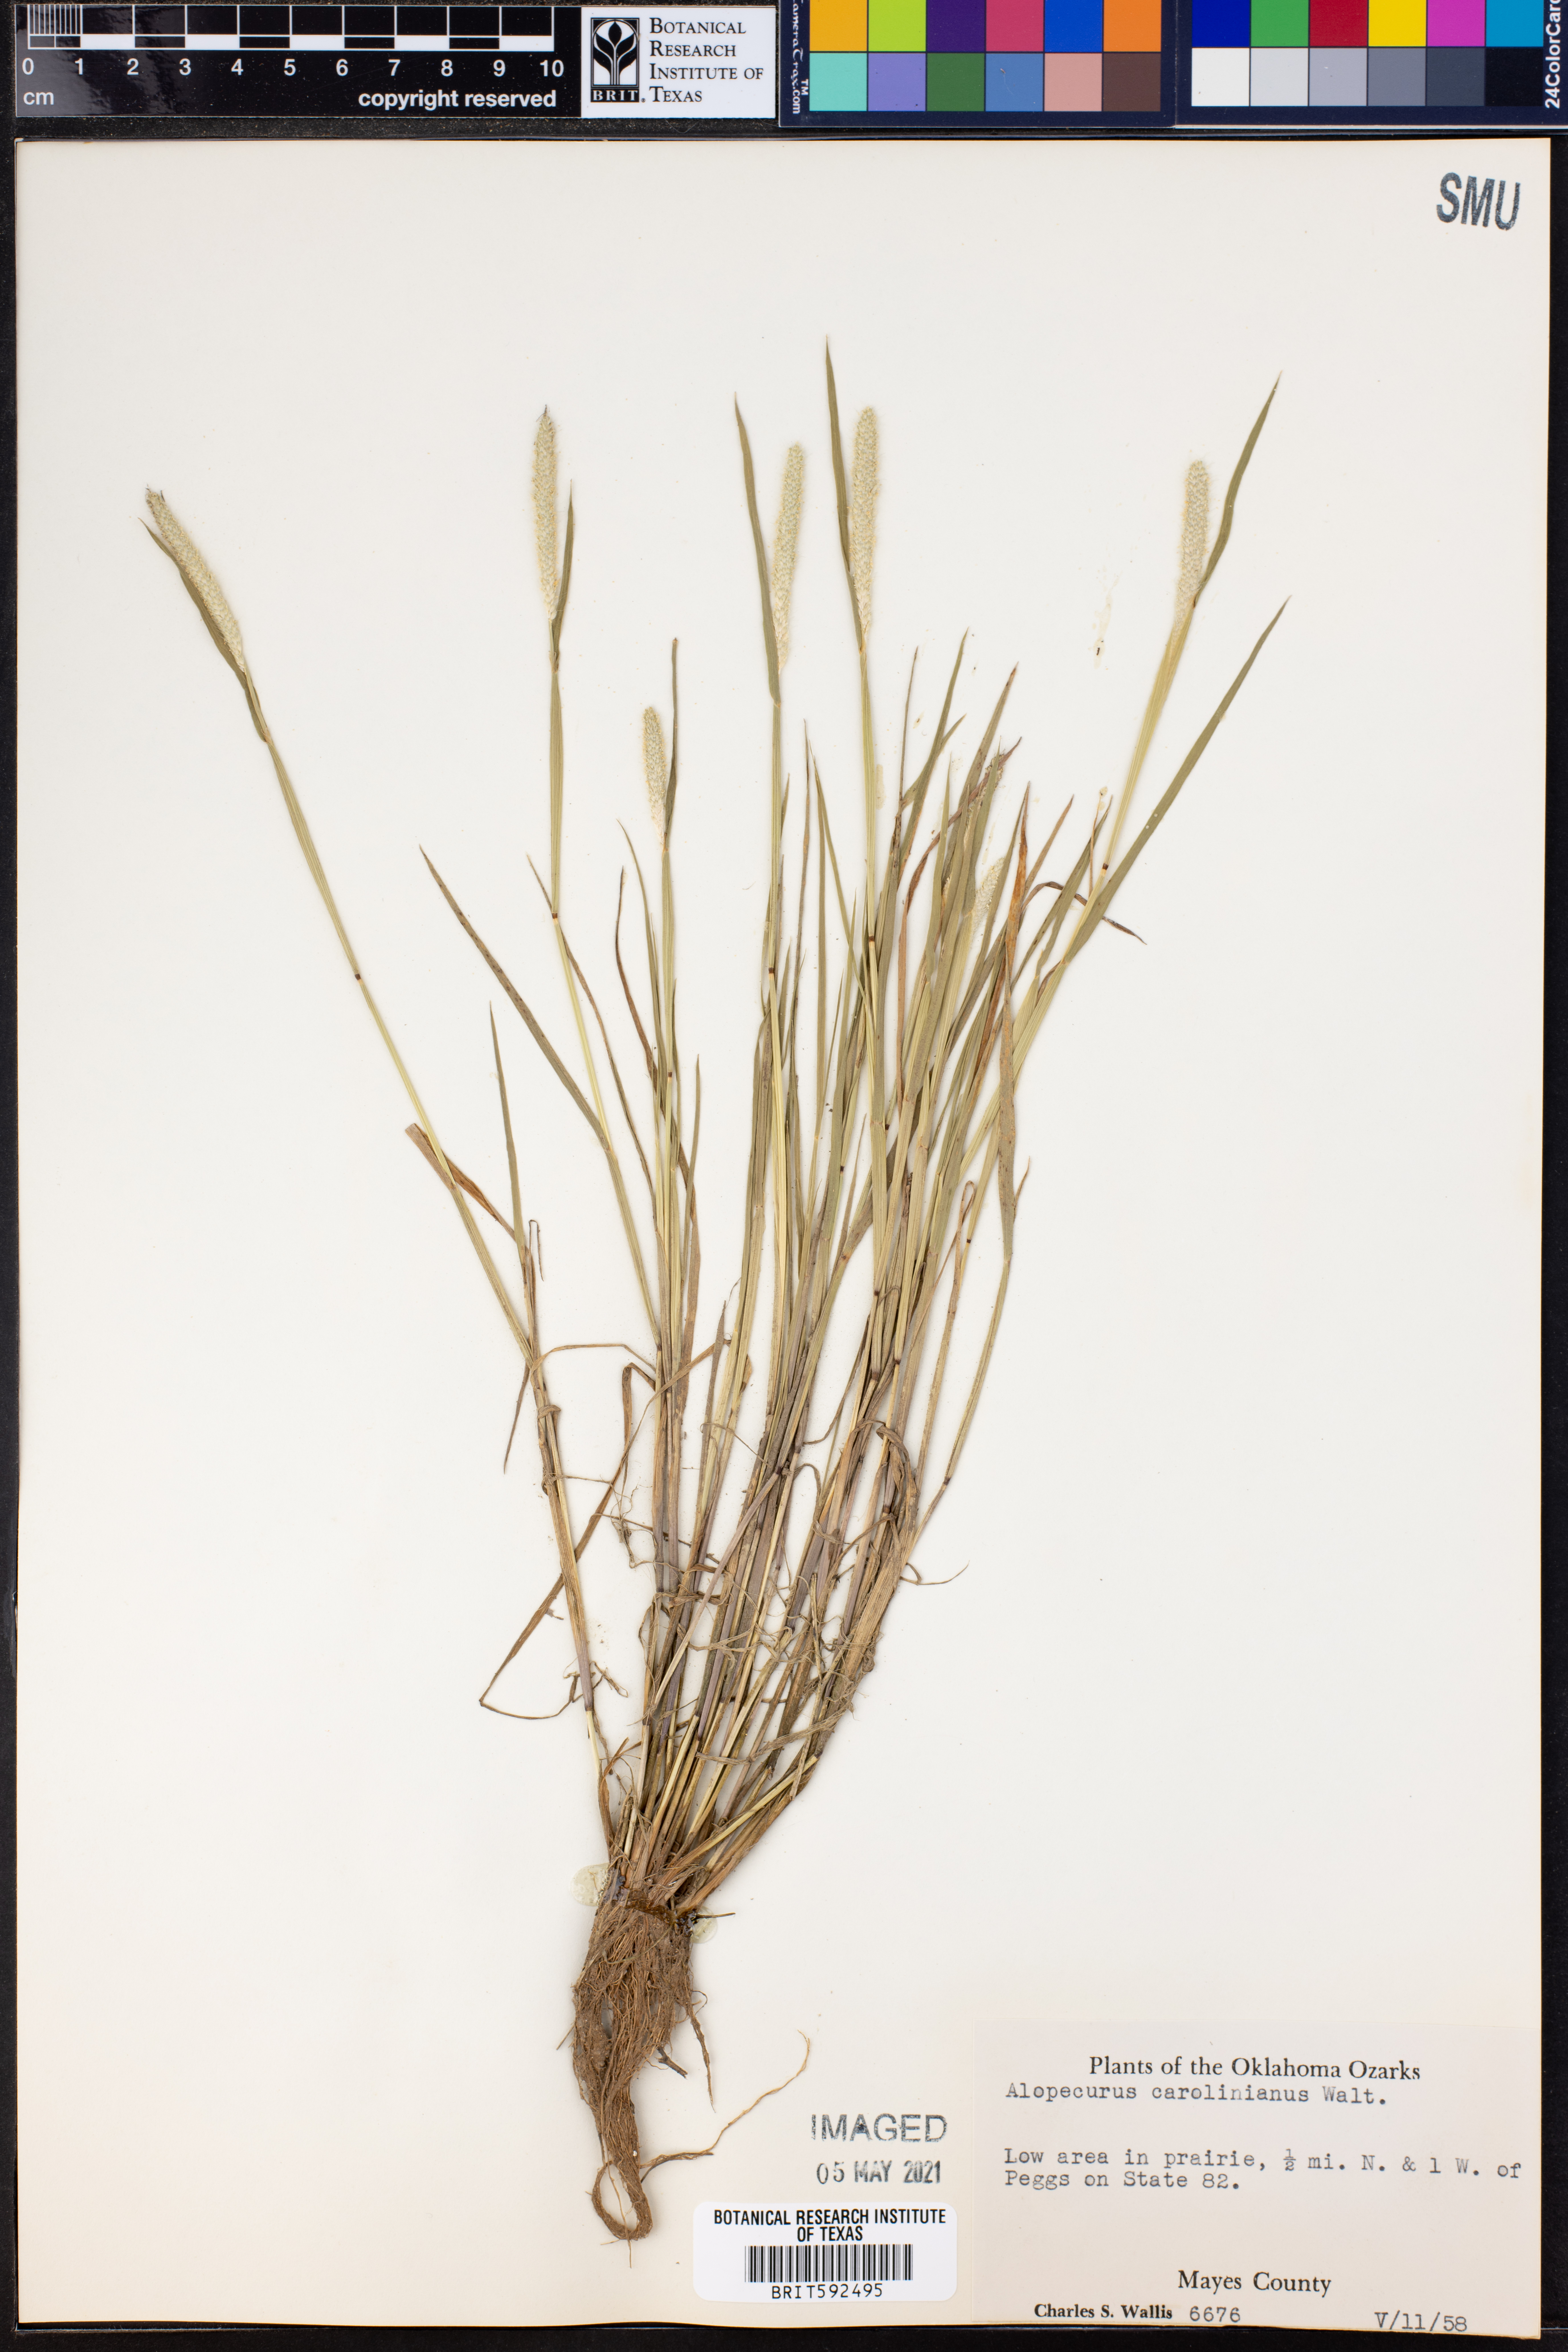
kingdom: Plantae
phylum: Tracheophyta
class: Liliopsida
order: Poales
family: Poaceae
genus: Alopecurus
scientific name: Alopecurus carolinianus
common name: Tufted foxtail
